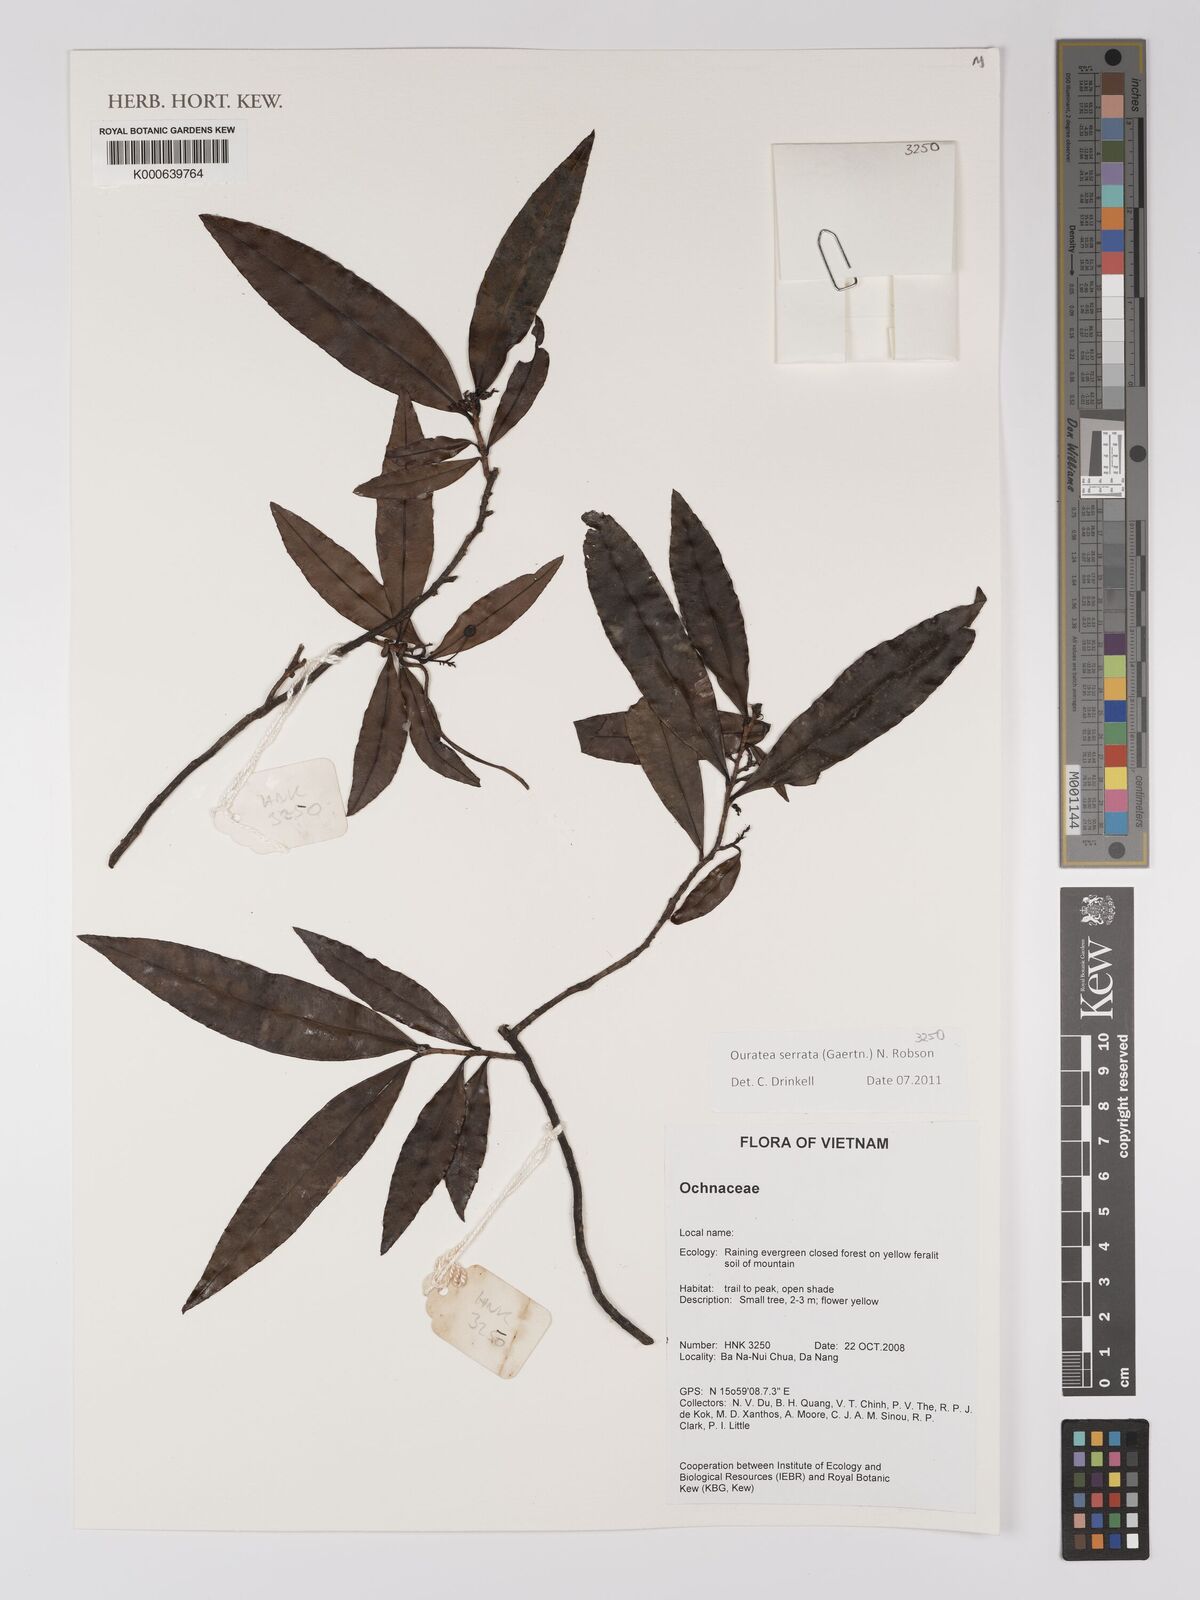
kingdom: Plantae
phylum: Tracheophyta
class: Magnoliopsida
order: Malpighiales
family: Ochnaceae
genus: Gomphia
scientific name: Gomphia serrata
